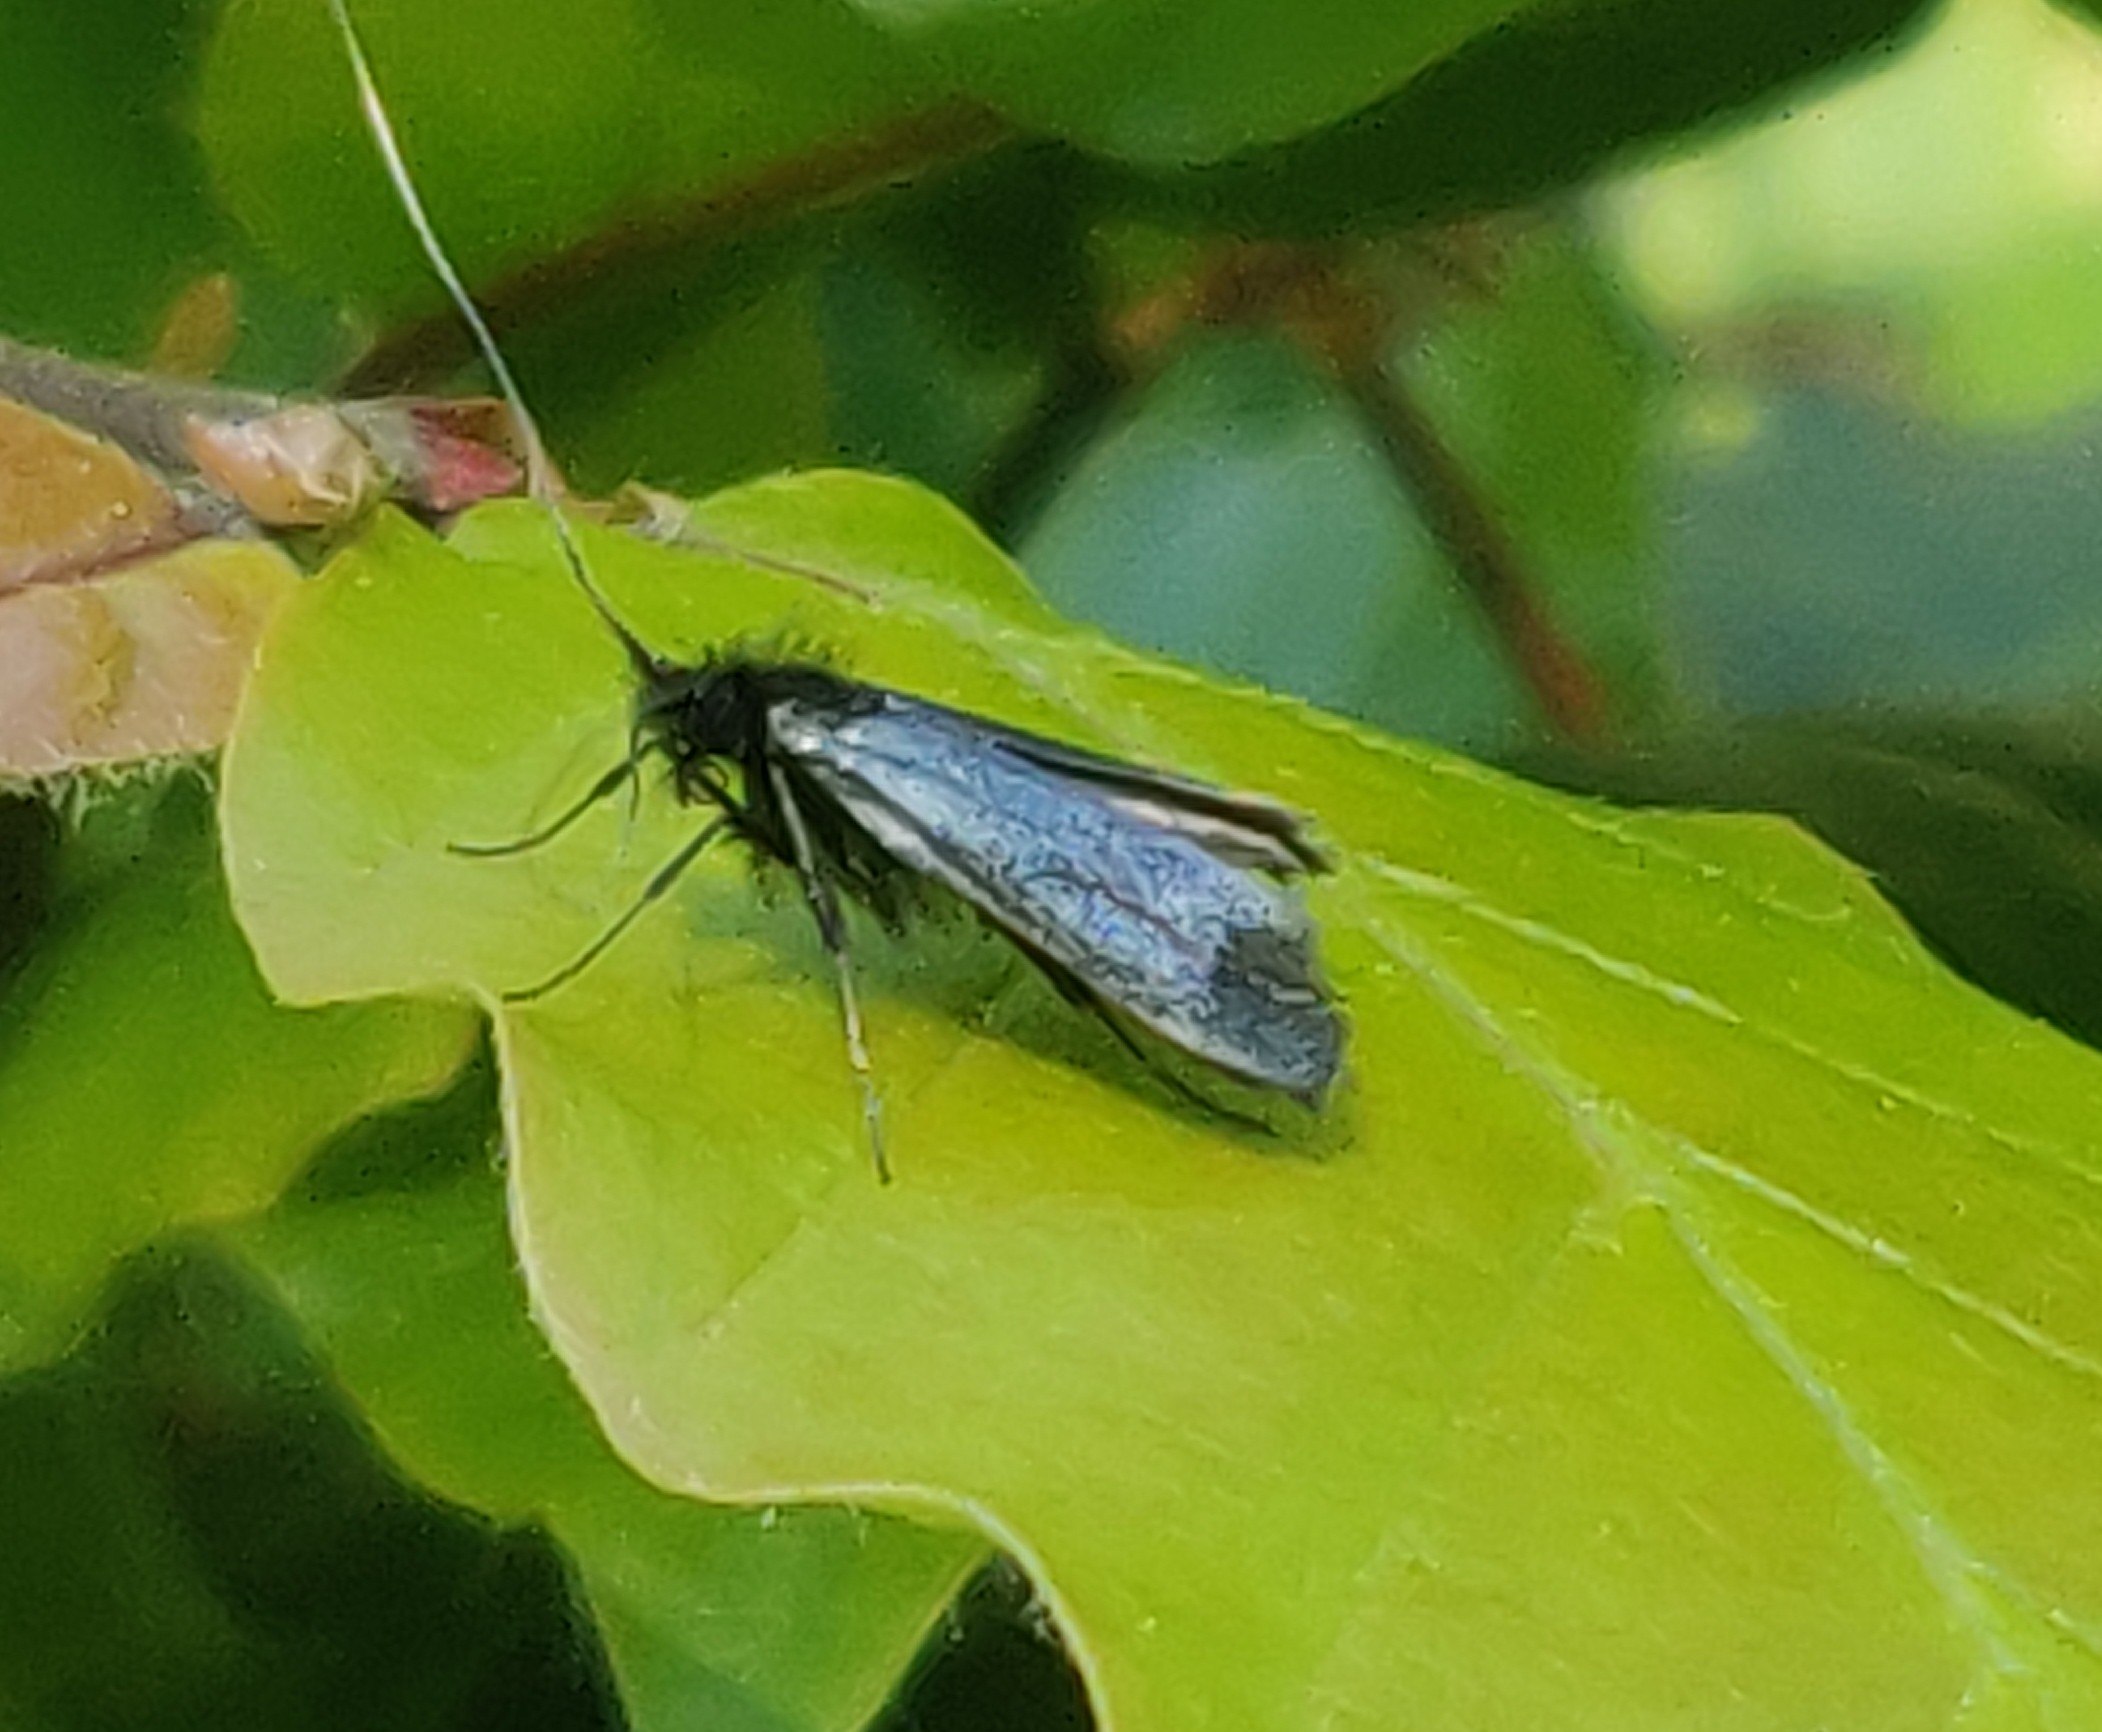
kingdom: Animalia
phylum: Arthropoda
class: Insecta
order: Lepidoptera
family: Adelidae
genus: Adela
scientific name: Adela viridella
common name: Egelanghornsmøl
